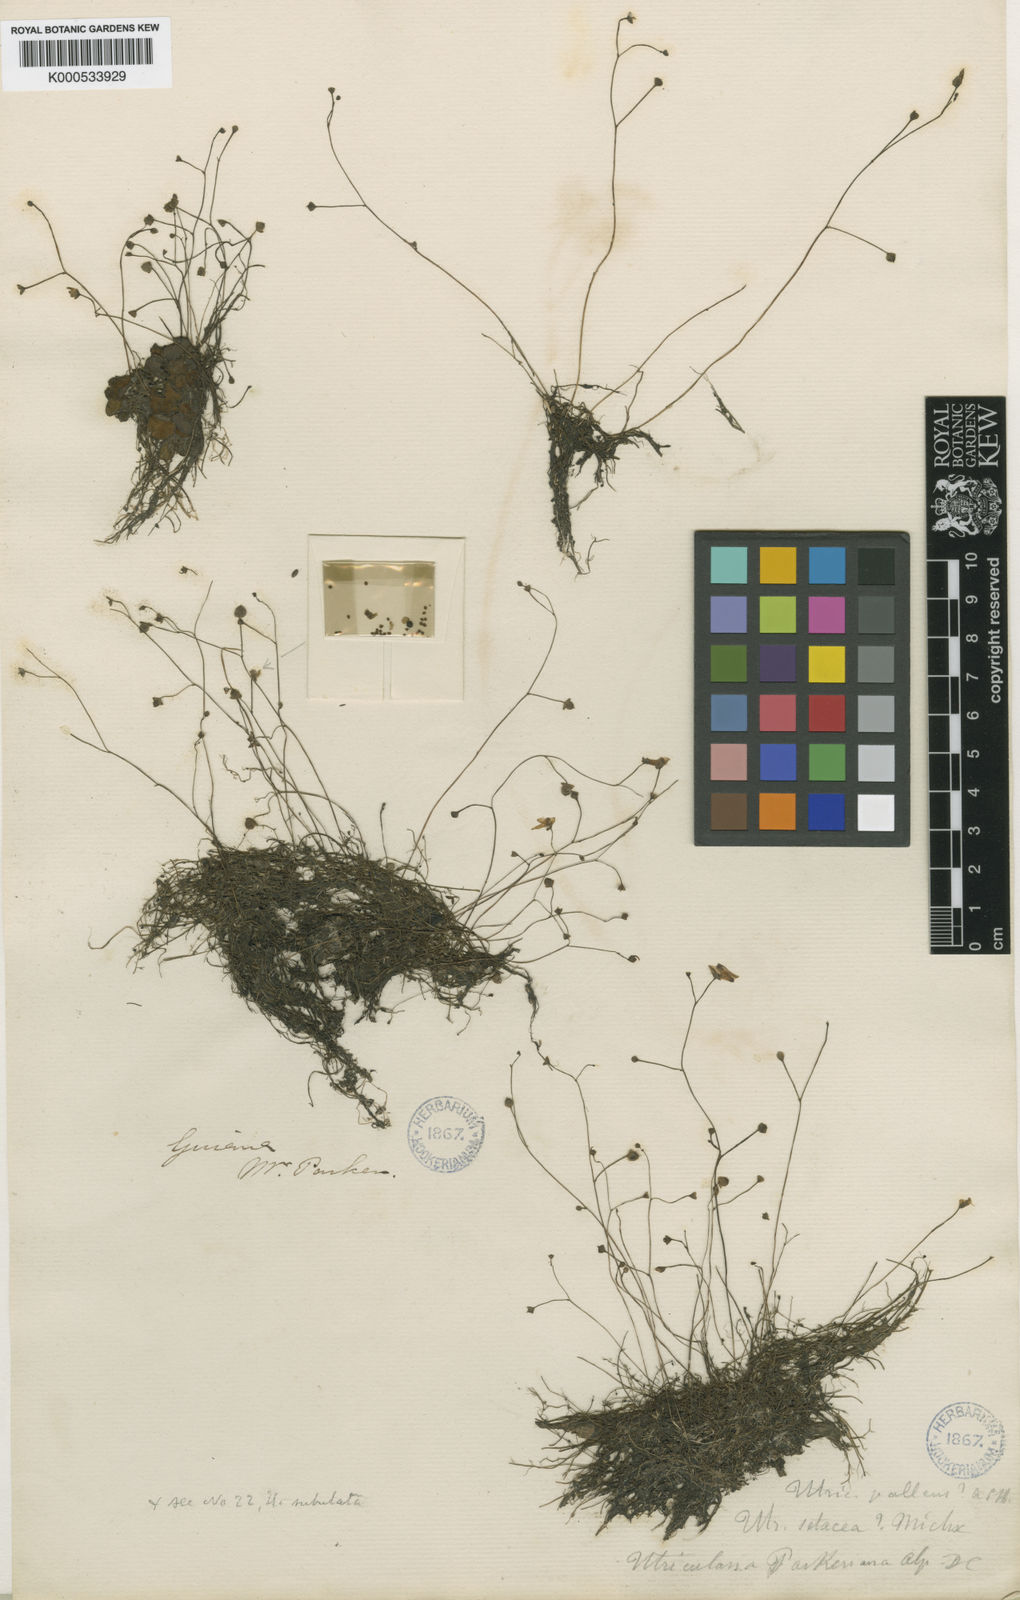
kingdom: Plantae
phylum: Tracheophyta
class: Magnoliopsida
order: Lamiales
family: Lentibulariaceae
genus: Utricularia
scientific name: Utricularia gibba
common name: Humped bladderwort
